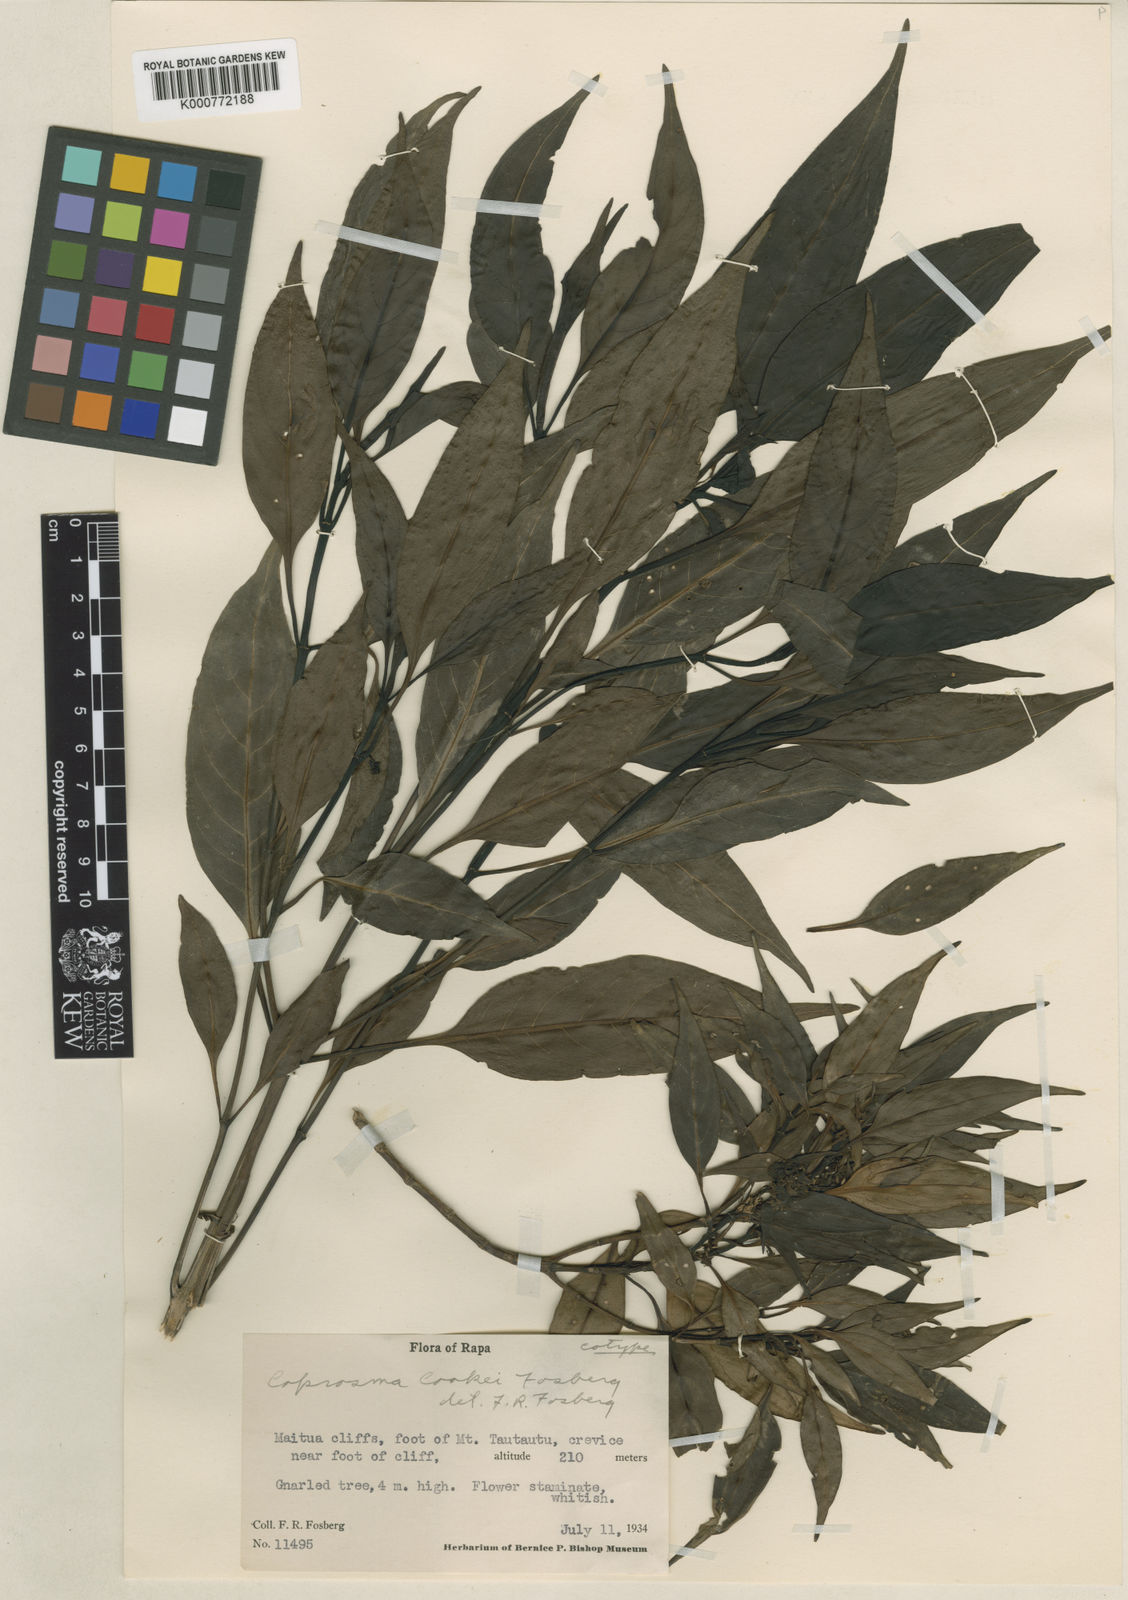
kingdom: Plantae
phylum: Tracheophyta
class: Magnoliopsida
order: Gentianales
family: Rubiaceae
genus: Coprosma
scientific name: Coprosma cookei
